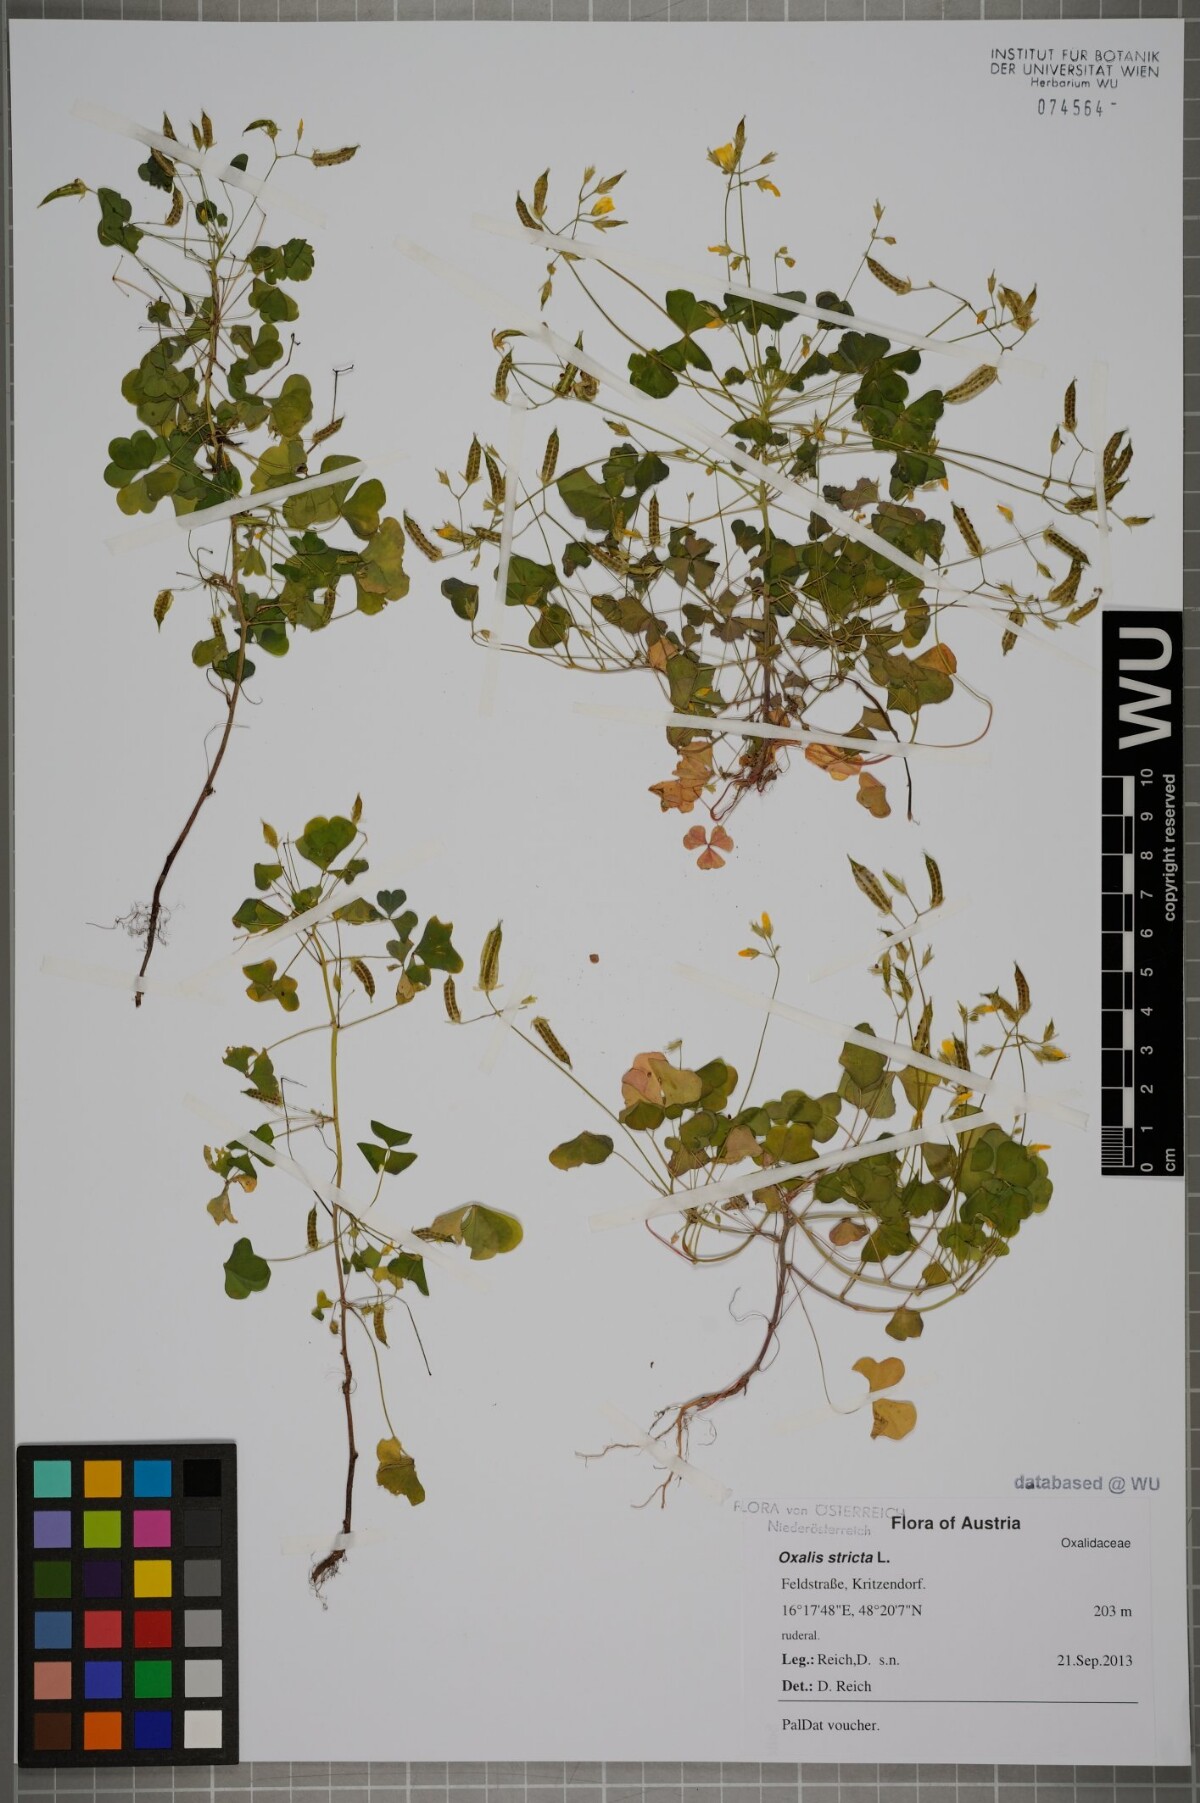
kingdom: Plantae
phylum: Tracheophyta
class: Magnoliopsida
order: Oxalidales
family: Oxalidaceae
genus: Oxalis
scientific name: Oxalis stricta
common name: Upright yellow-sorrel
